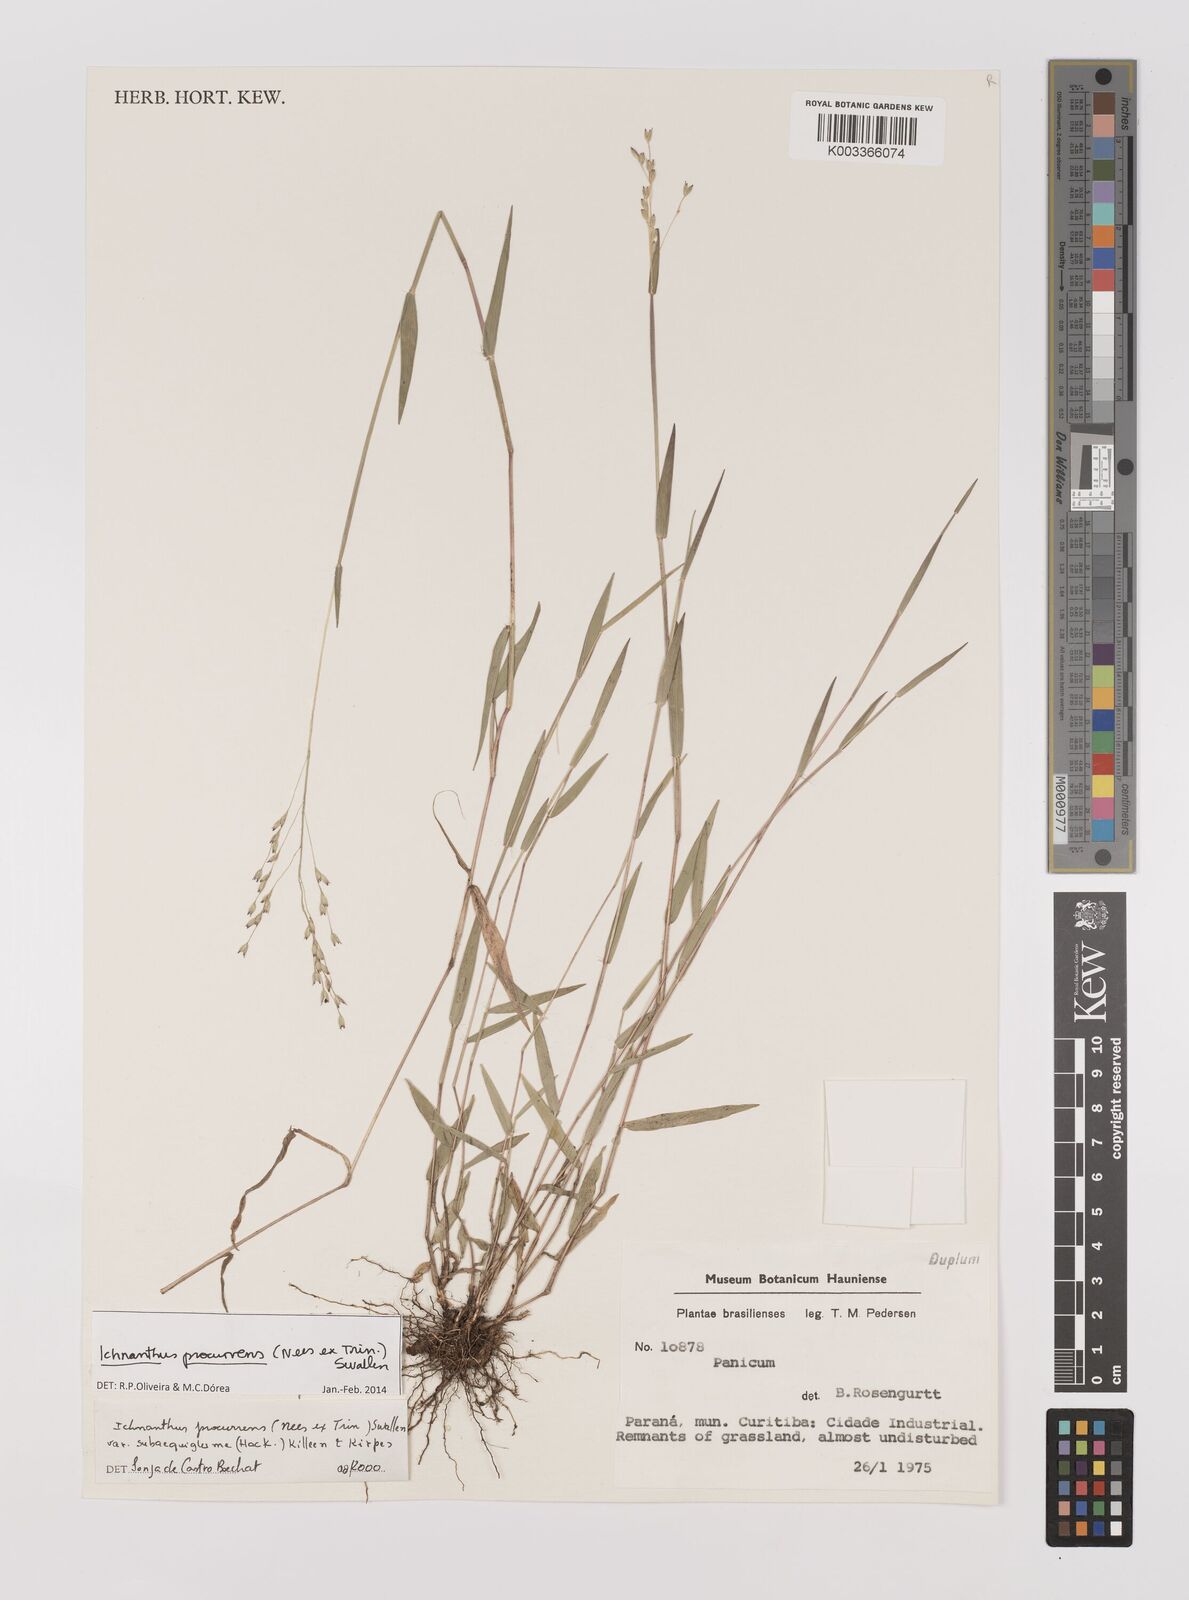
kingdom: Plantae
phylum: Tracheophyta
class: Liliopsida
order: Poales
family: Poaceae
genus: Oedochloa
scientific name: Oedochloa procurrens
